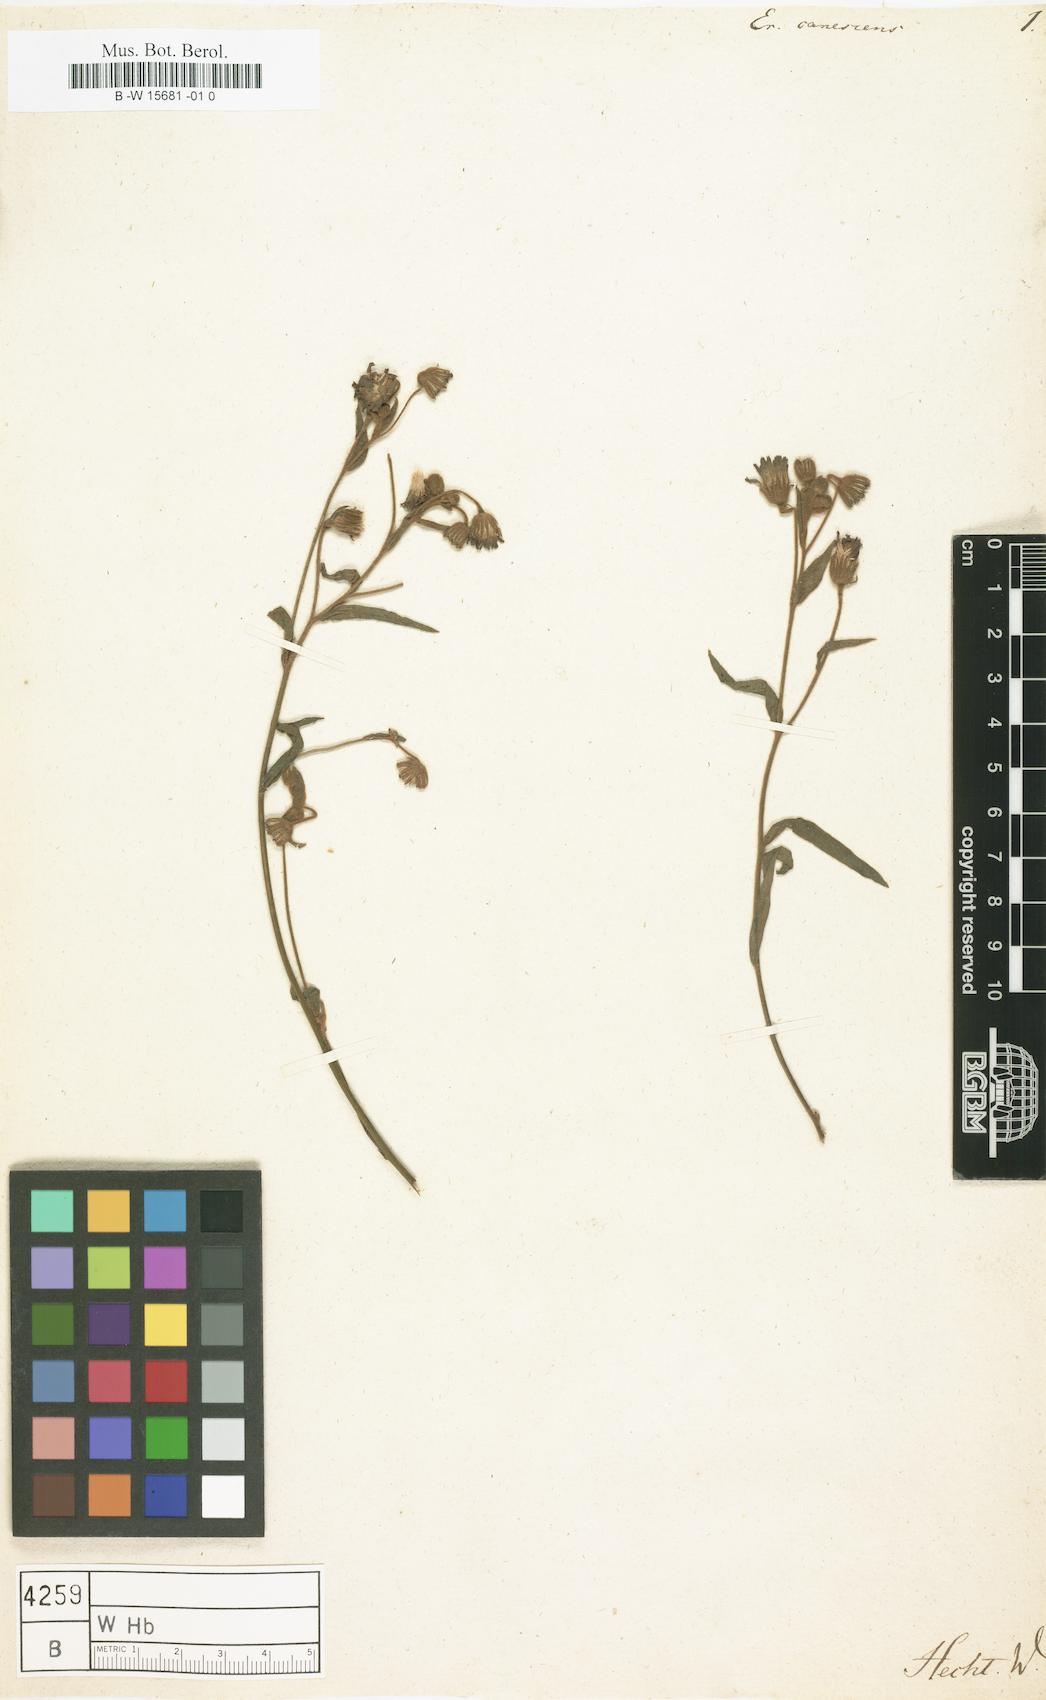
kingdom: Plantae
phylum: Tracheophyta
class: Magnoliopsida
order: Asterales
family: Asteraceae
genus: Erigeron
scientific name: Erigeron stenophyllus
